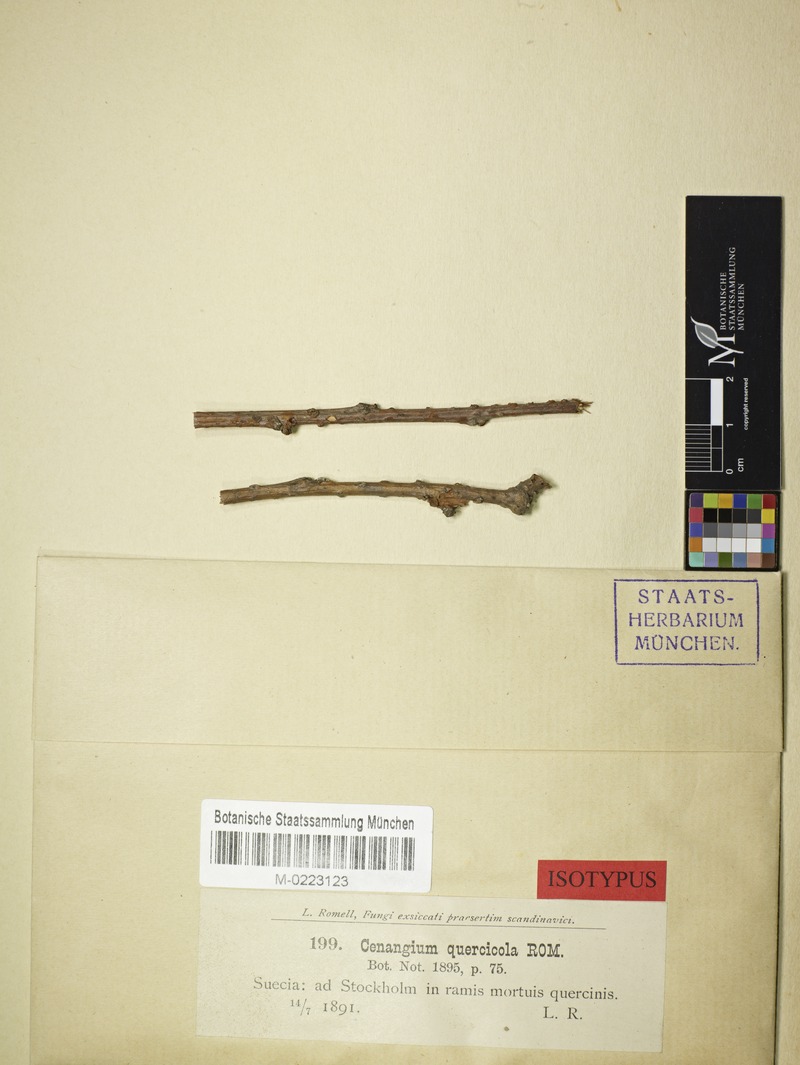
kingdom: Fungi
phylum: Ascomycota
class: Leotiomycetes
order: Helotiales
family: Cenangiaceae
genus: Cenangiopsis
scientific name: Cenangiopsis quercicola
